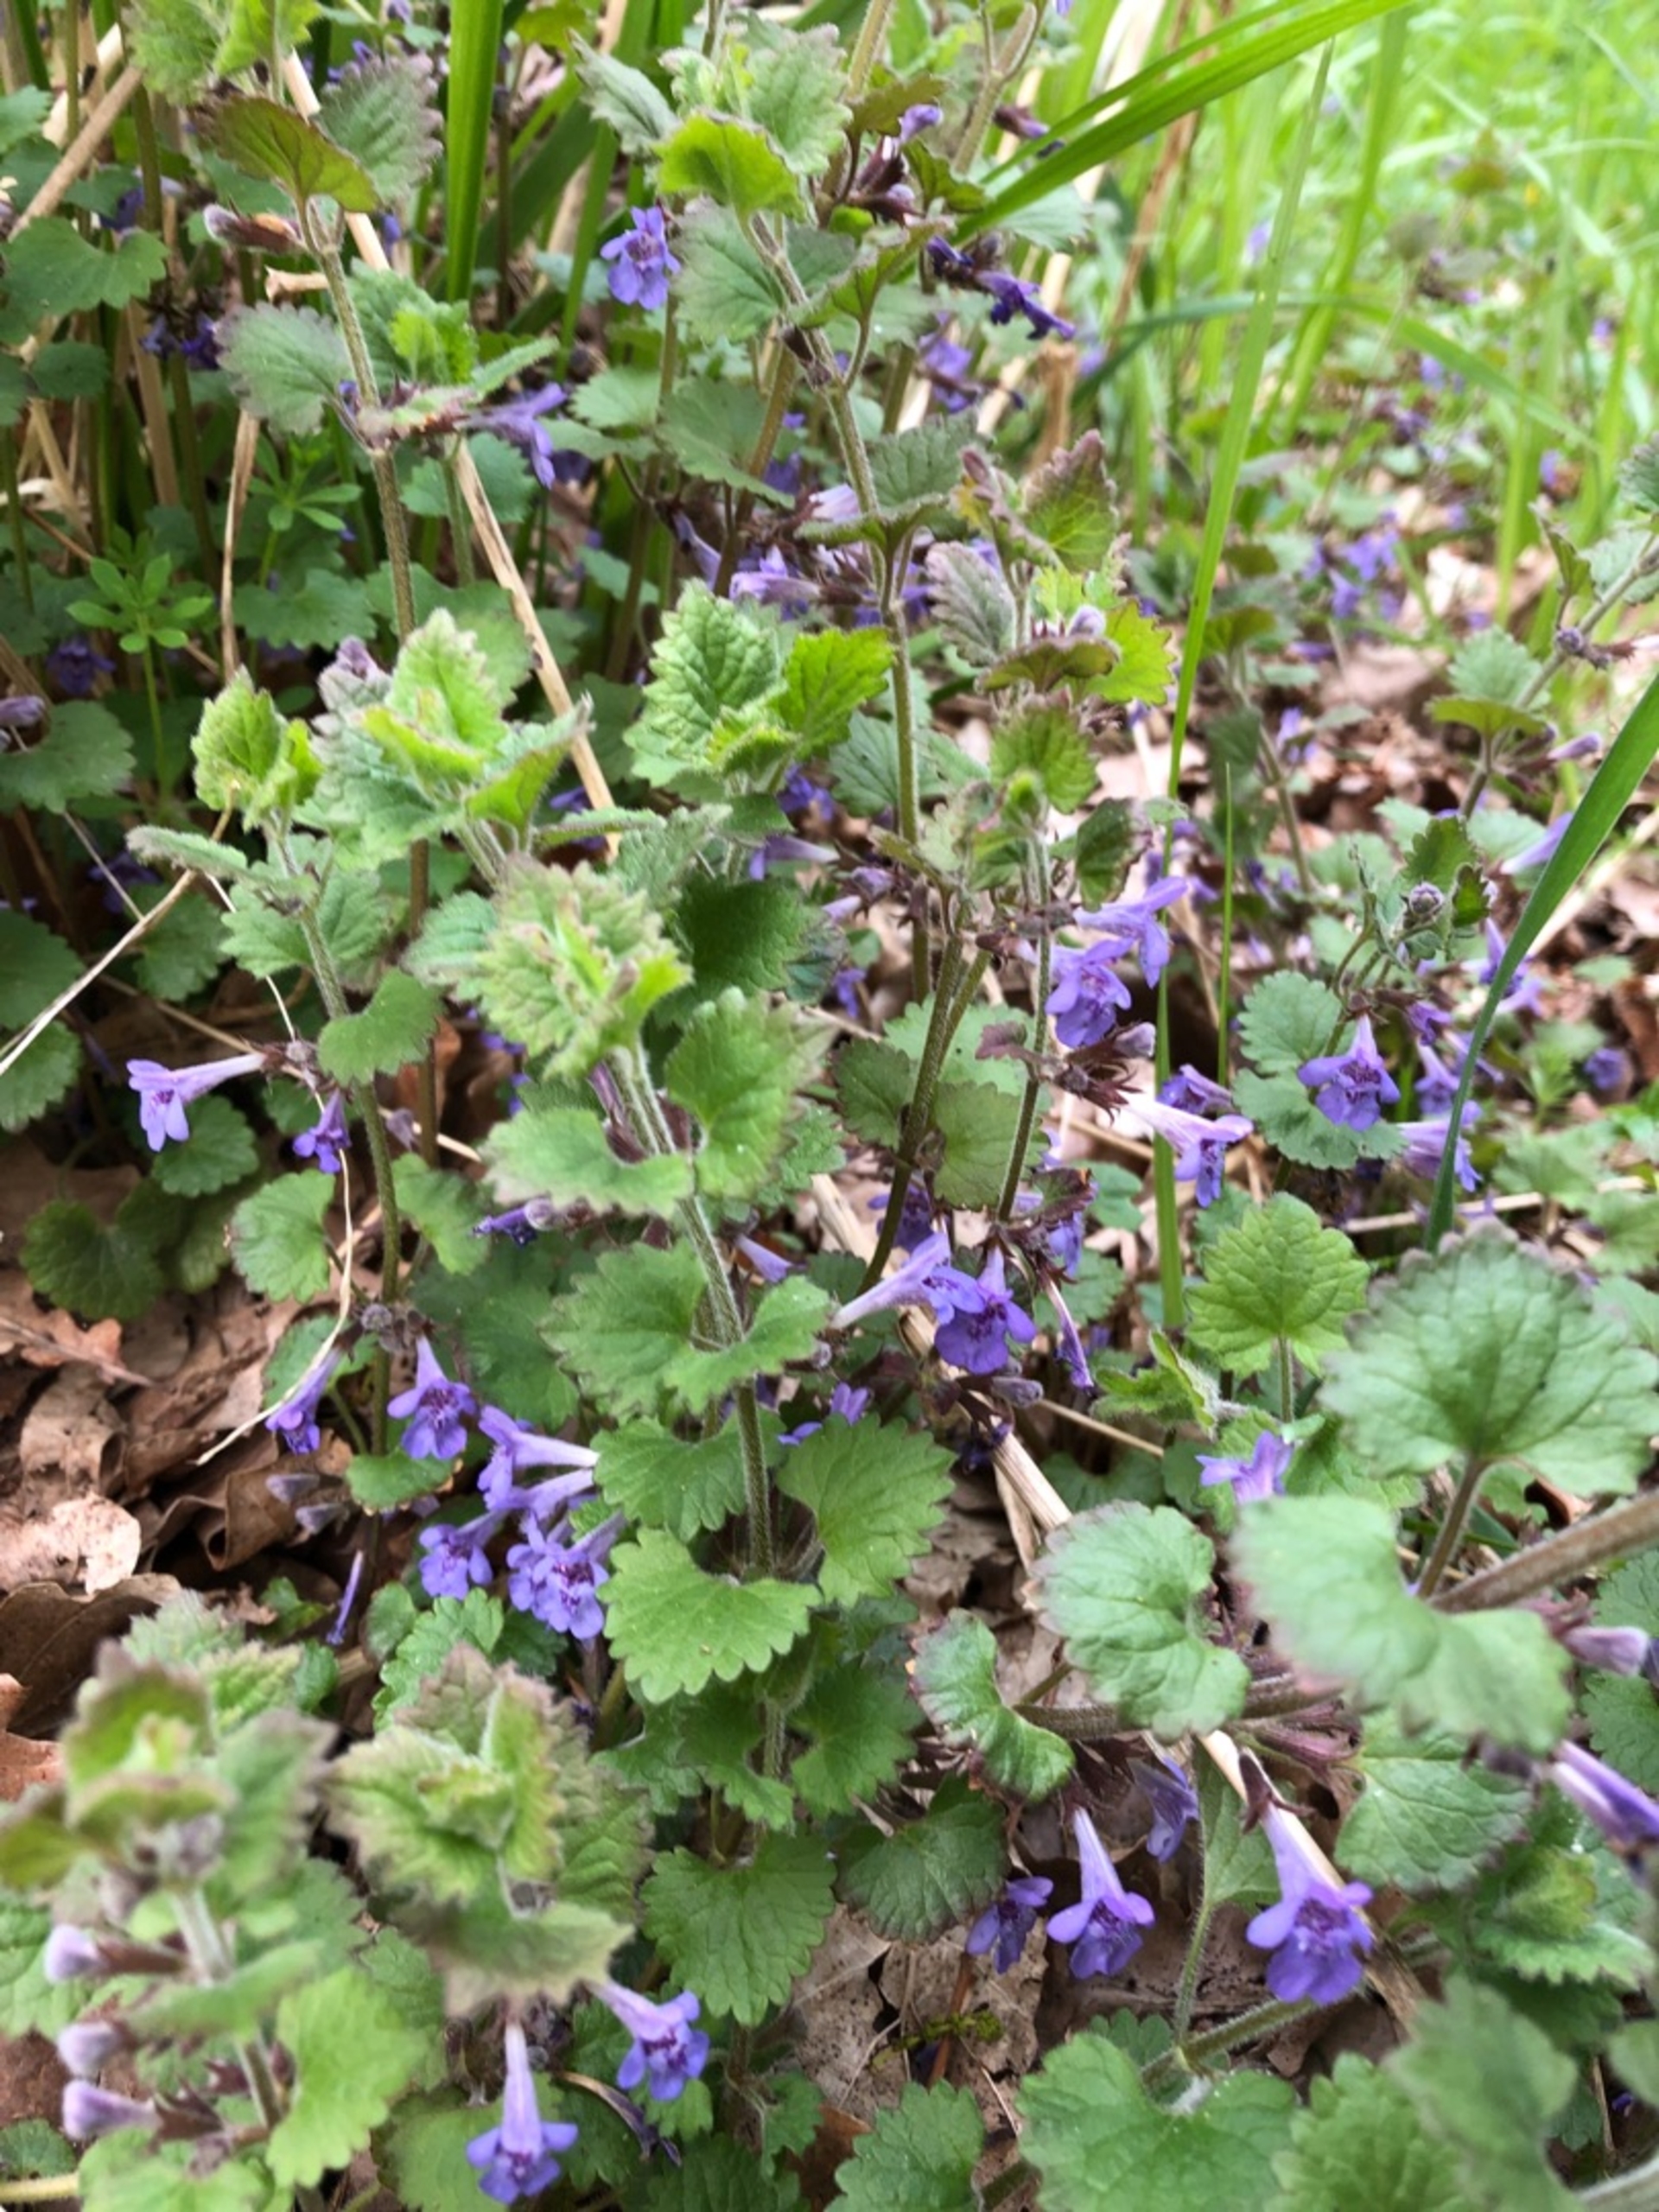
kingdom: Plantae
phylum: Tracheophyta
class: Magnoliopsida
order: Lamiales
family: Lamiaceae
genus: Glechoma
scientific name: Glechoma hederacea
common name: Korsknap
